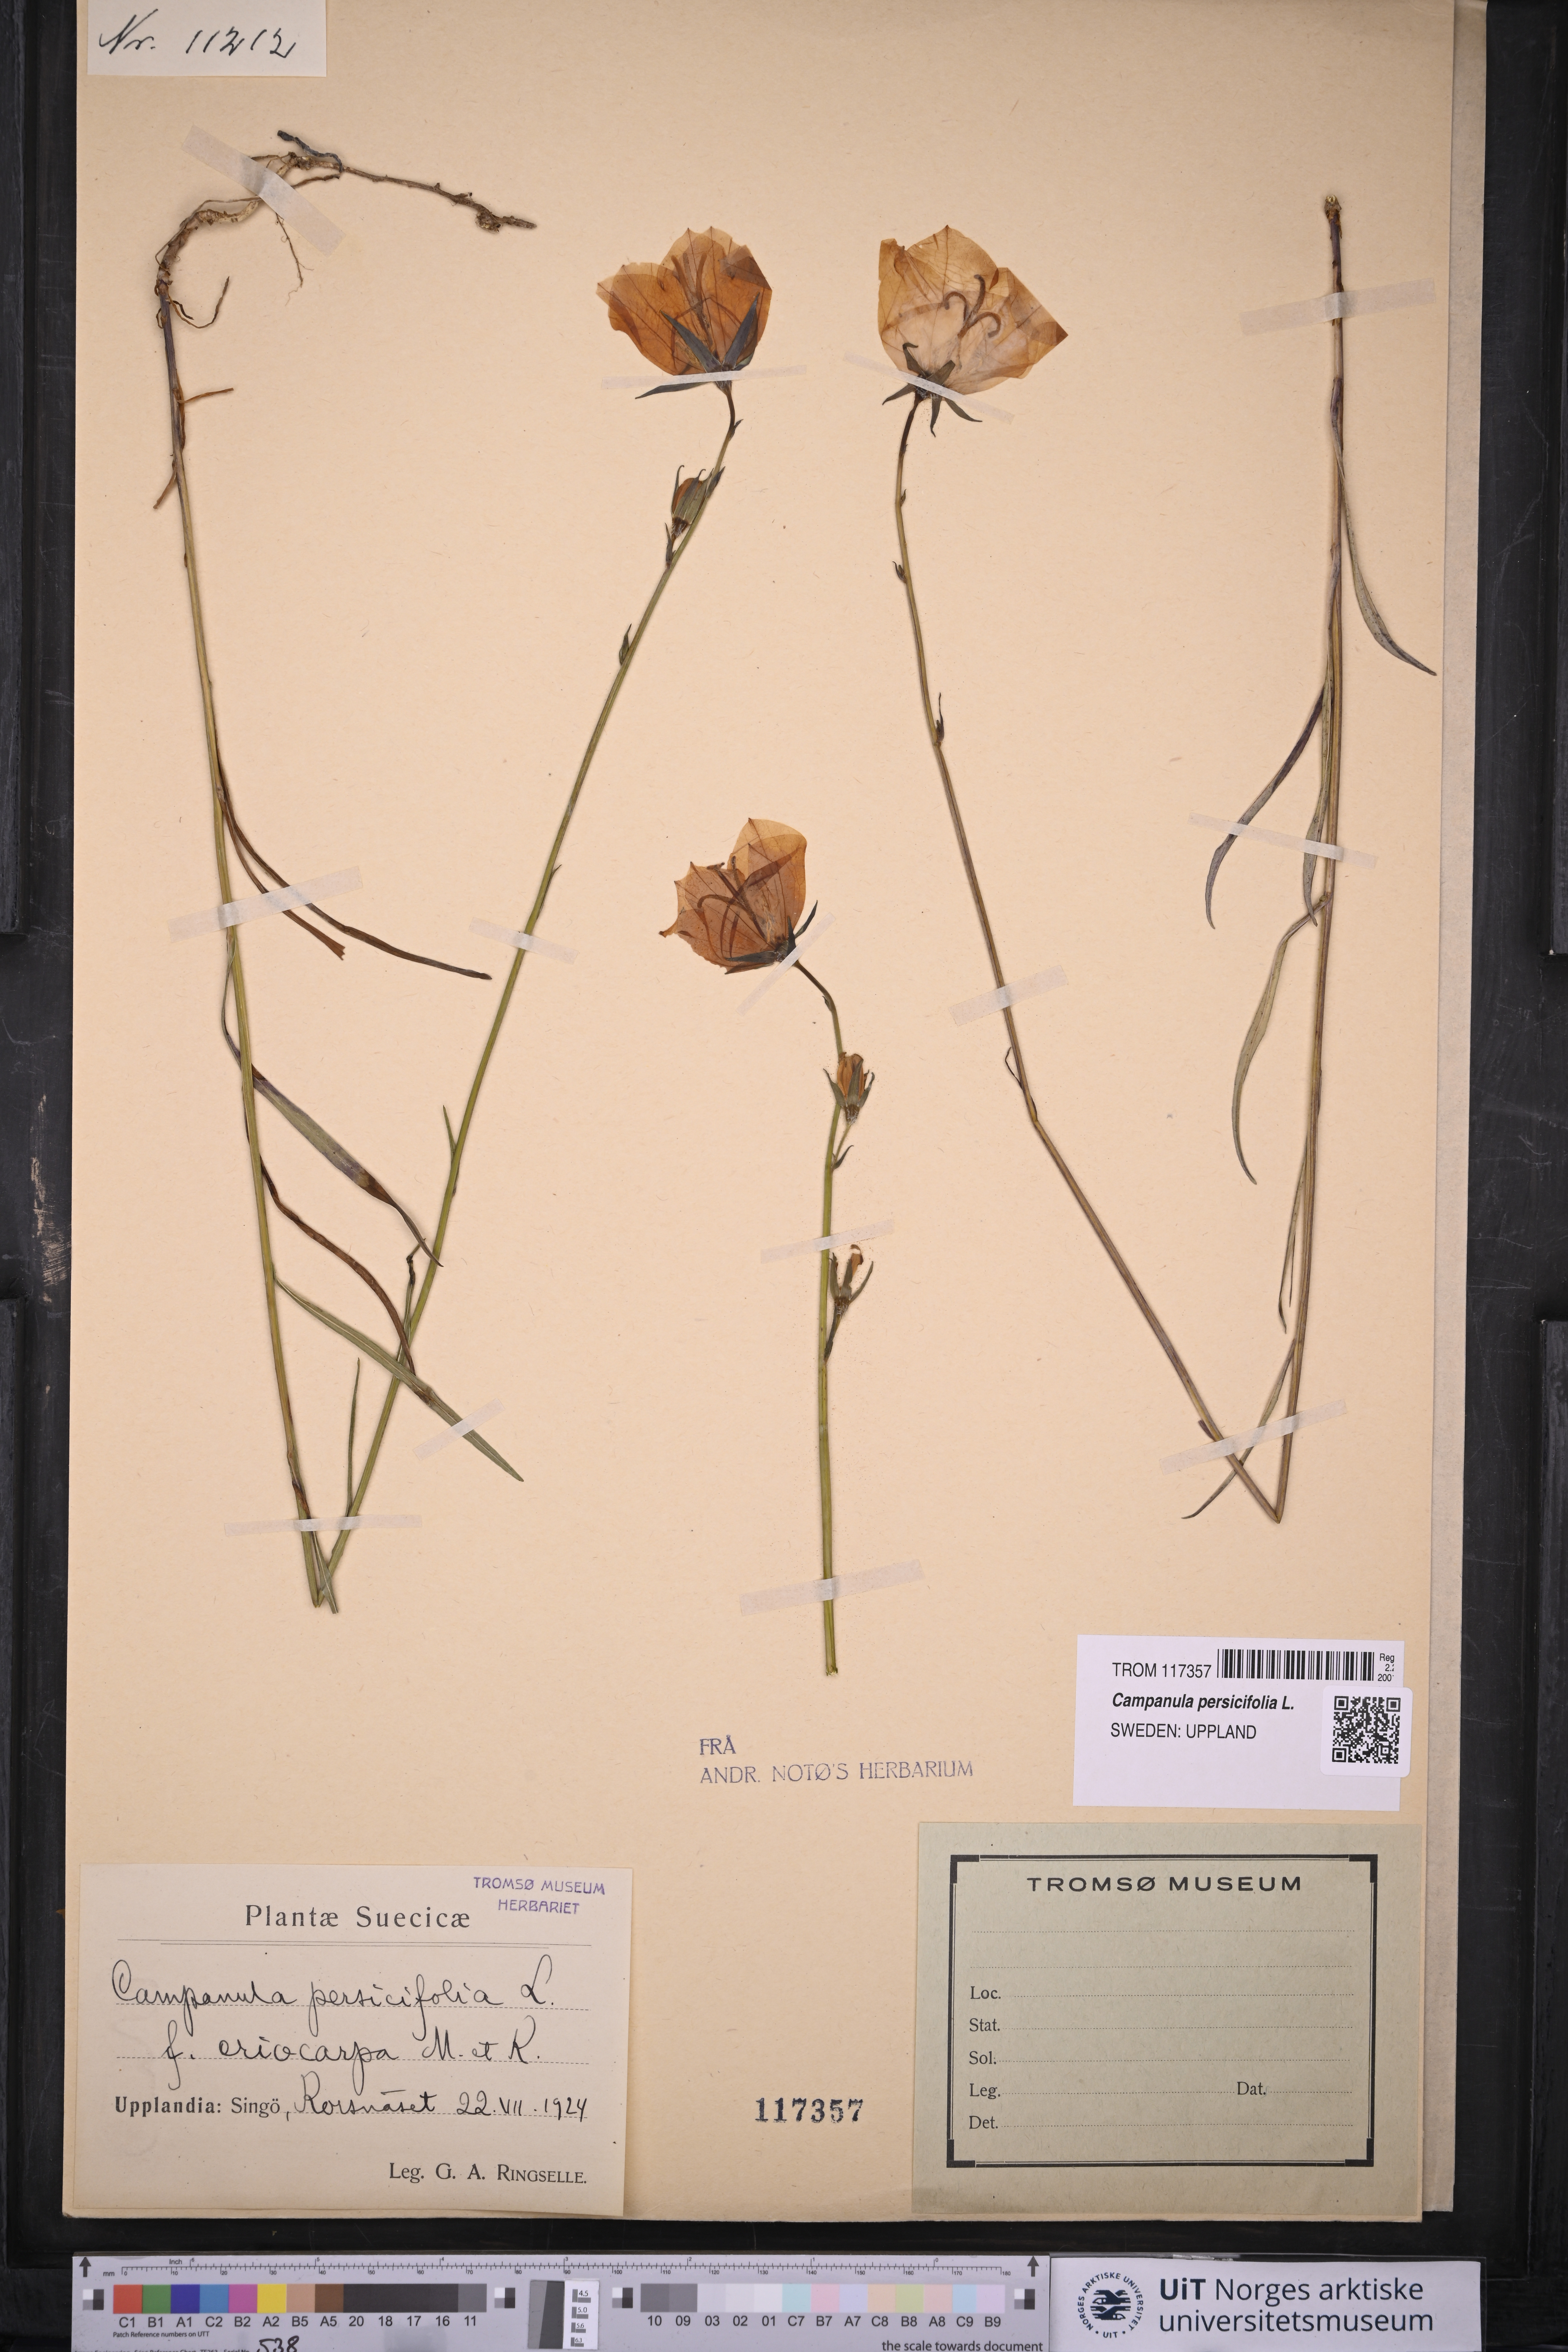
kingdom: Plantae
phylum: Tracheophyta
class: Magnoliopsida
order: Asterales
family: Campanulaceae
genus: Campanula
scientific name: Campanula persicifolia
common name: Peach-leaved bellflower
